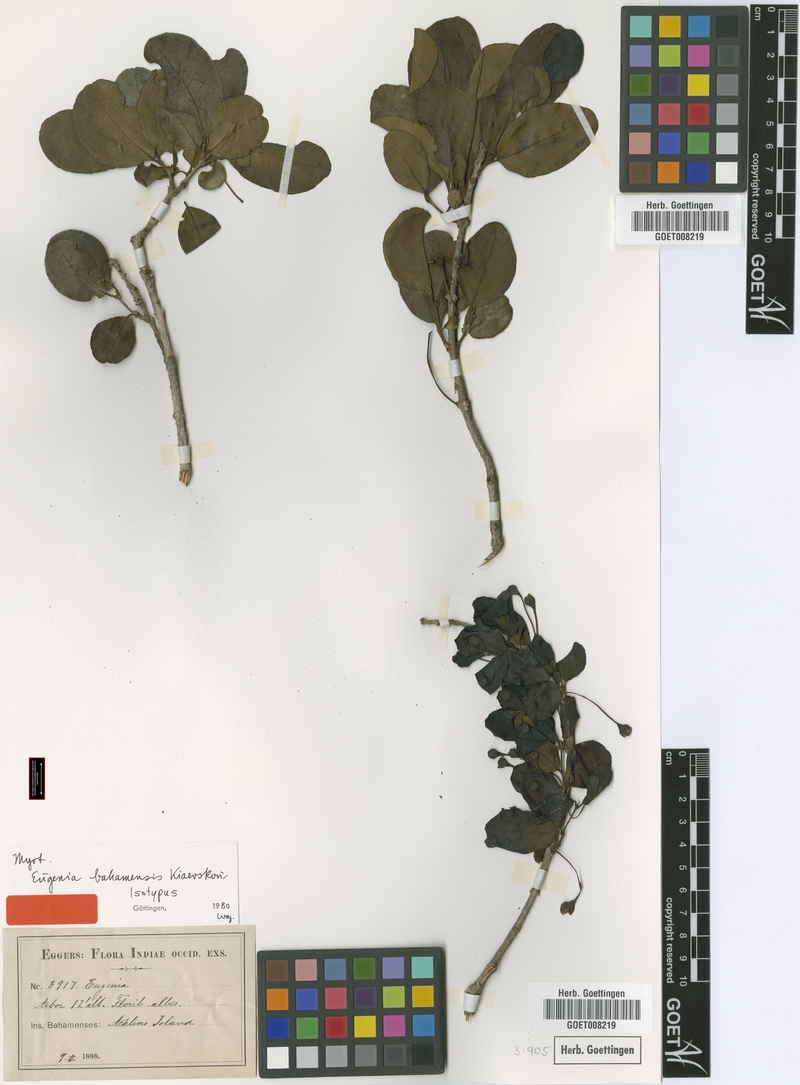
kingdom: Plantae
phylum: Tracheophyta
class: Magnoliopsida
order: Myrtales
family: Myrtaceae
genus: Mosiera
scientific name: Mosiera longipes
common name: Bahama stopper
